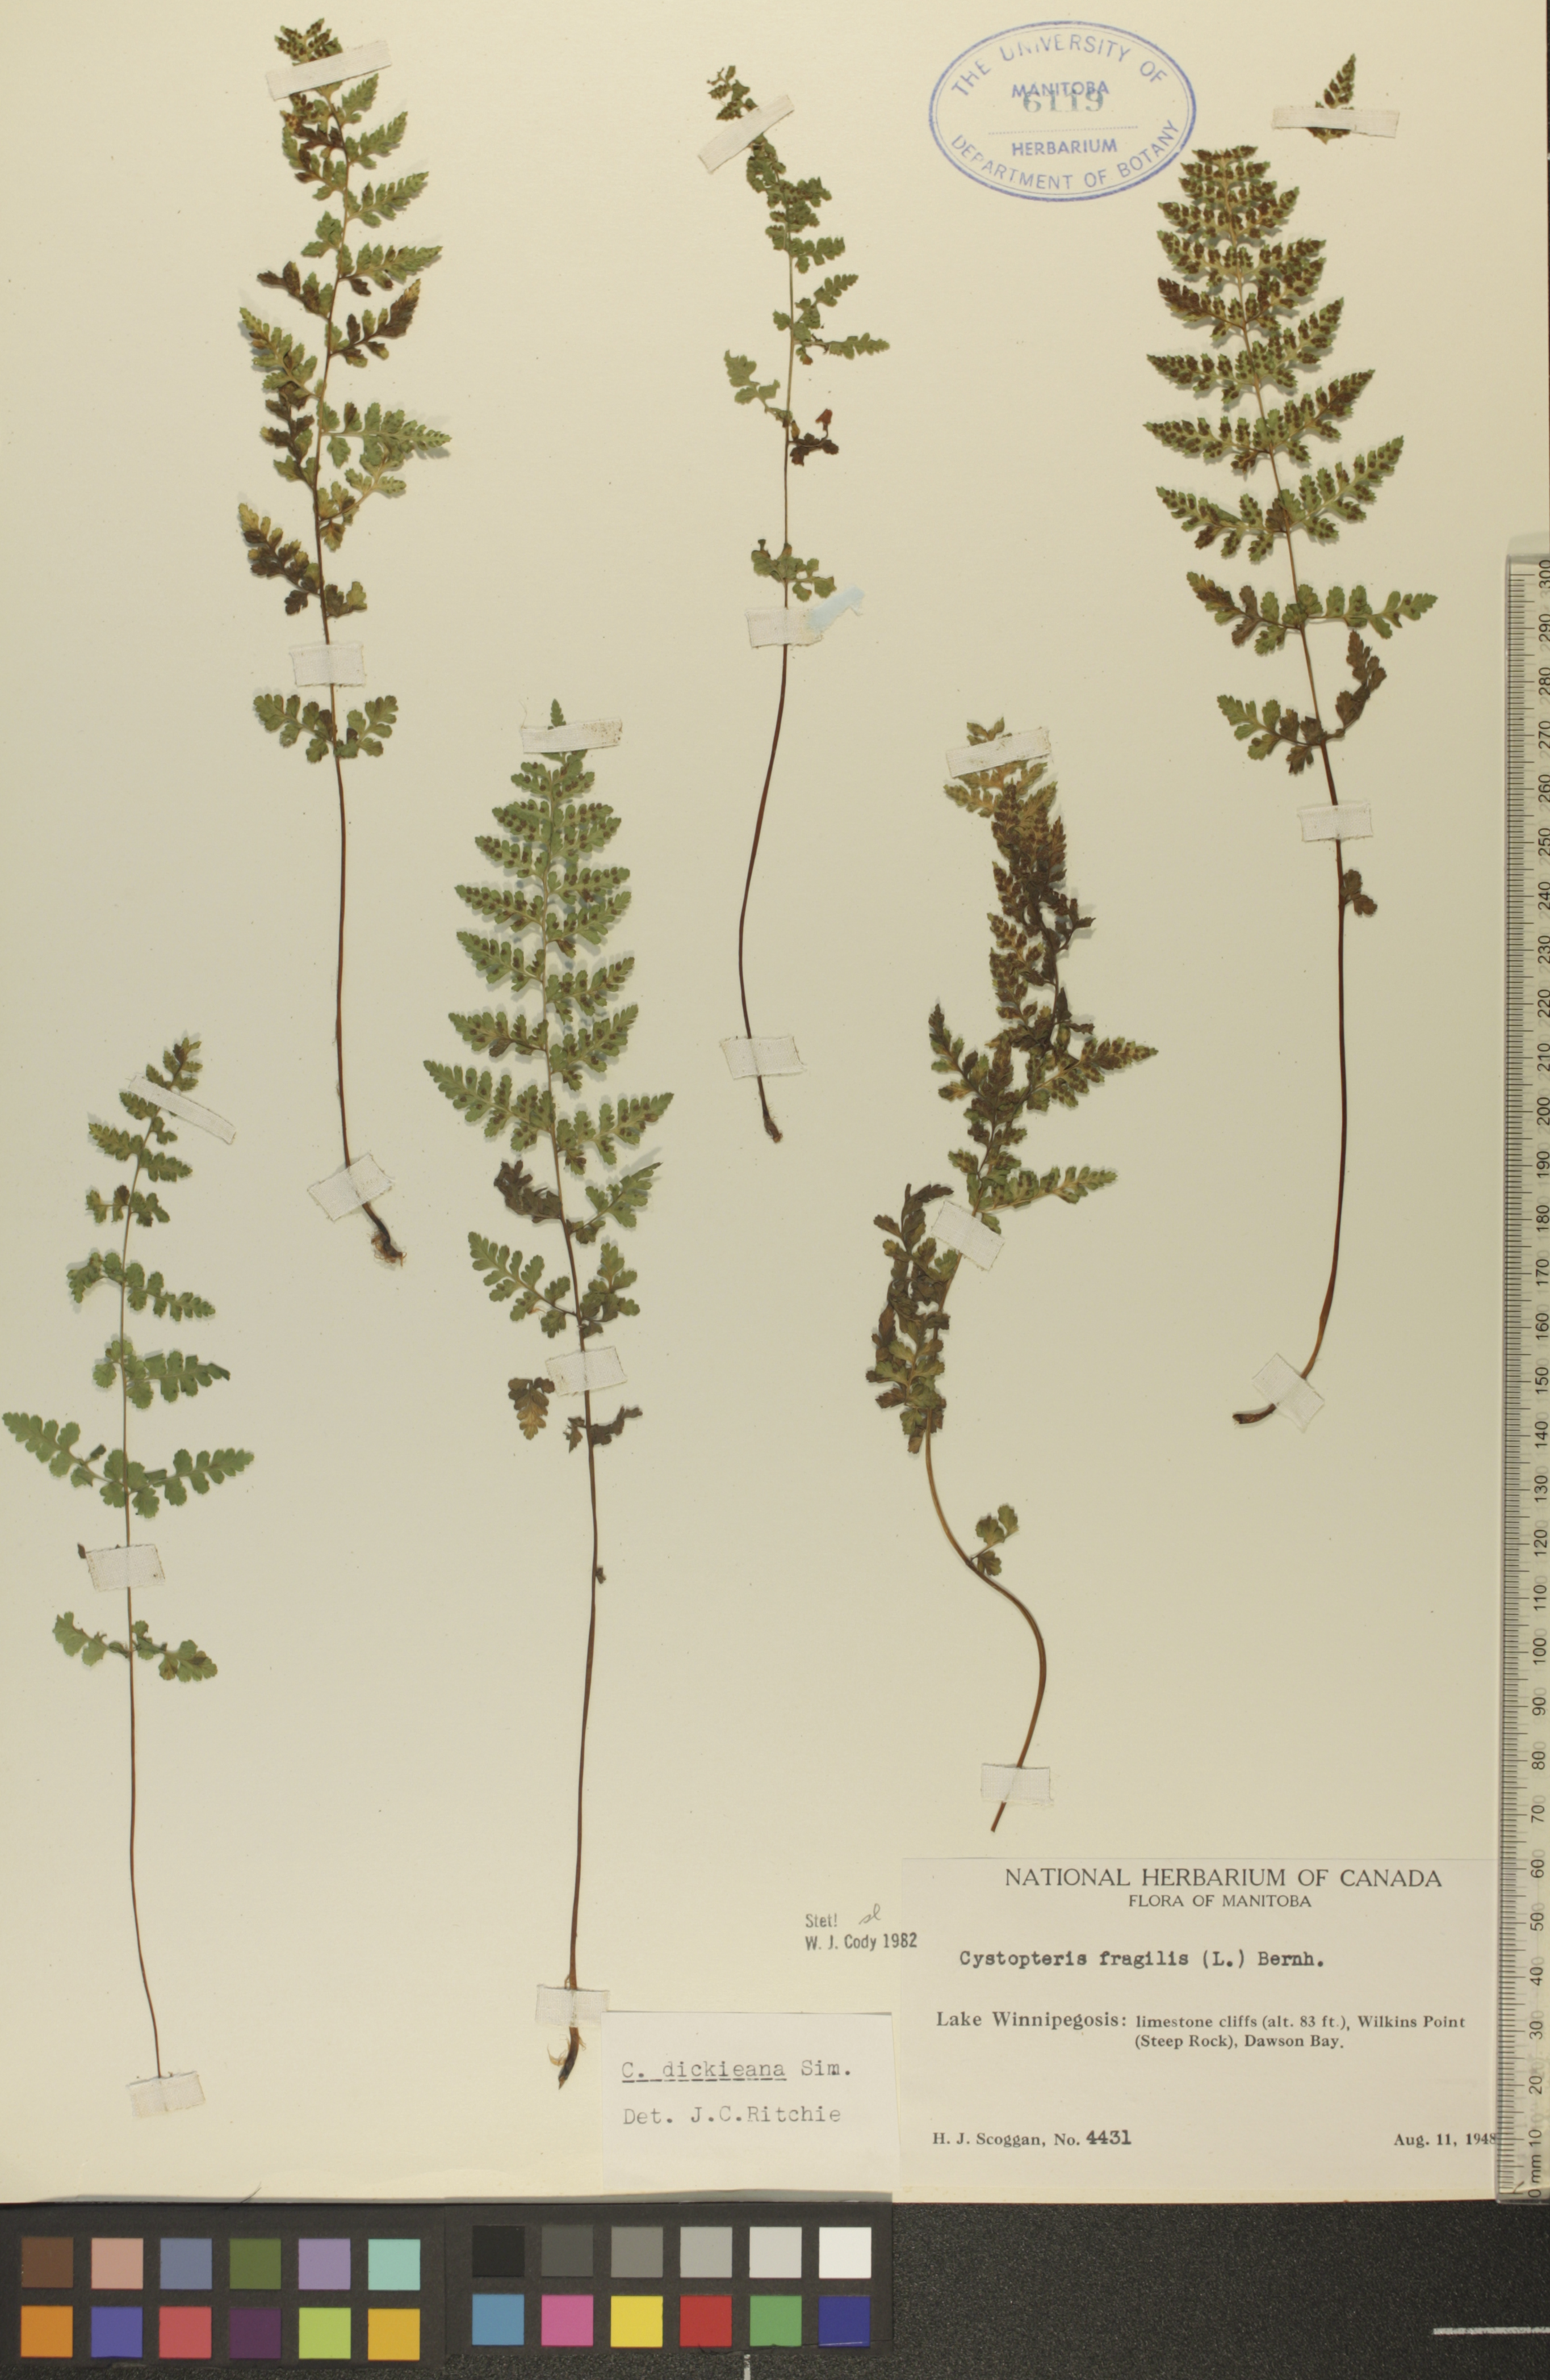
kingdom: Plantae
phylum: Tracheophyta
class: Polypodiopsida
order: Polypodiales
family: Cystopteridaceae
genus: Cystopteris
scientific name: Cystopteris fragilis
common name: Brittle bladder fern
